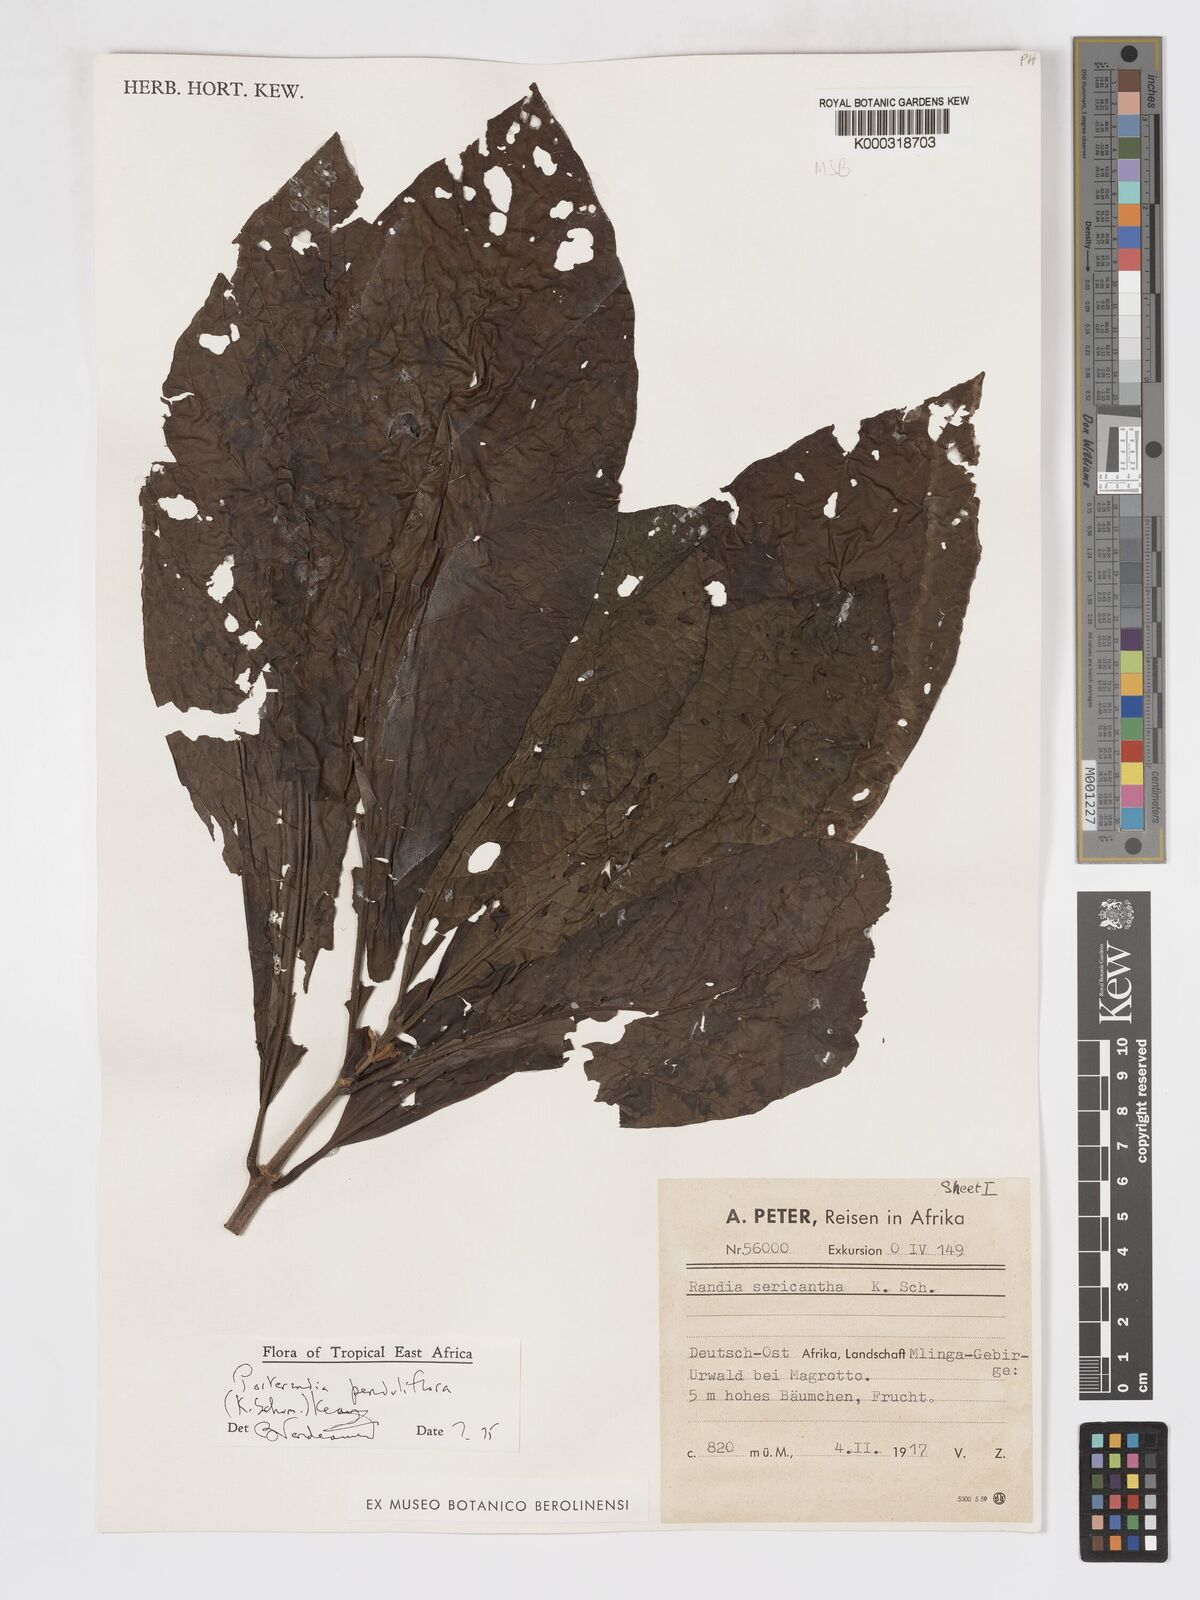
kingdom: Plantae
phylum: Tracheophyta
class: Magnoliopsida
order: Gentianales
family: Rubiaceae
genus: Aoranthe
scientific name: Aoranthe penduliflora
